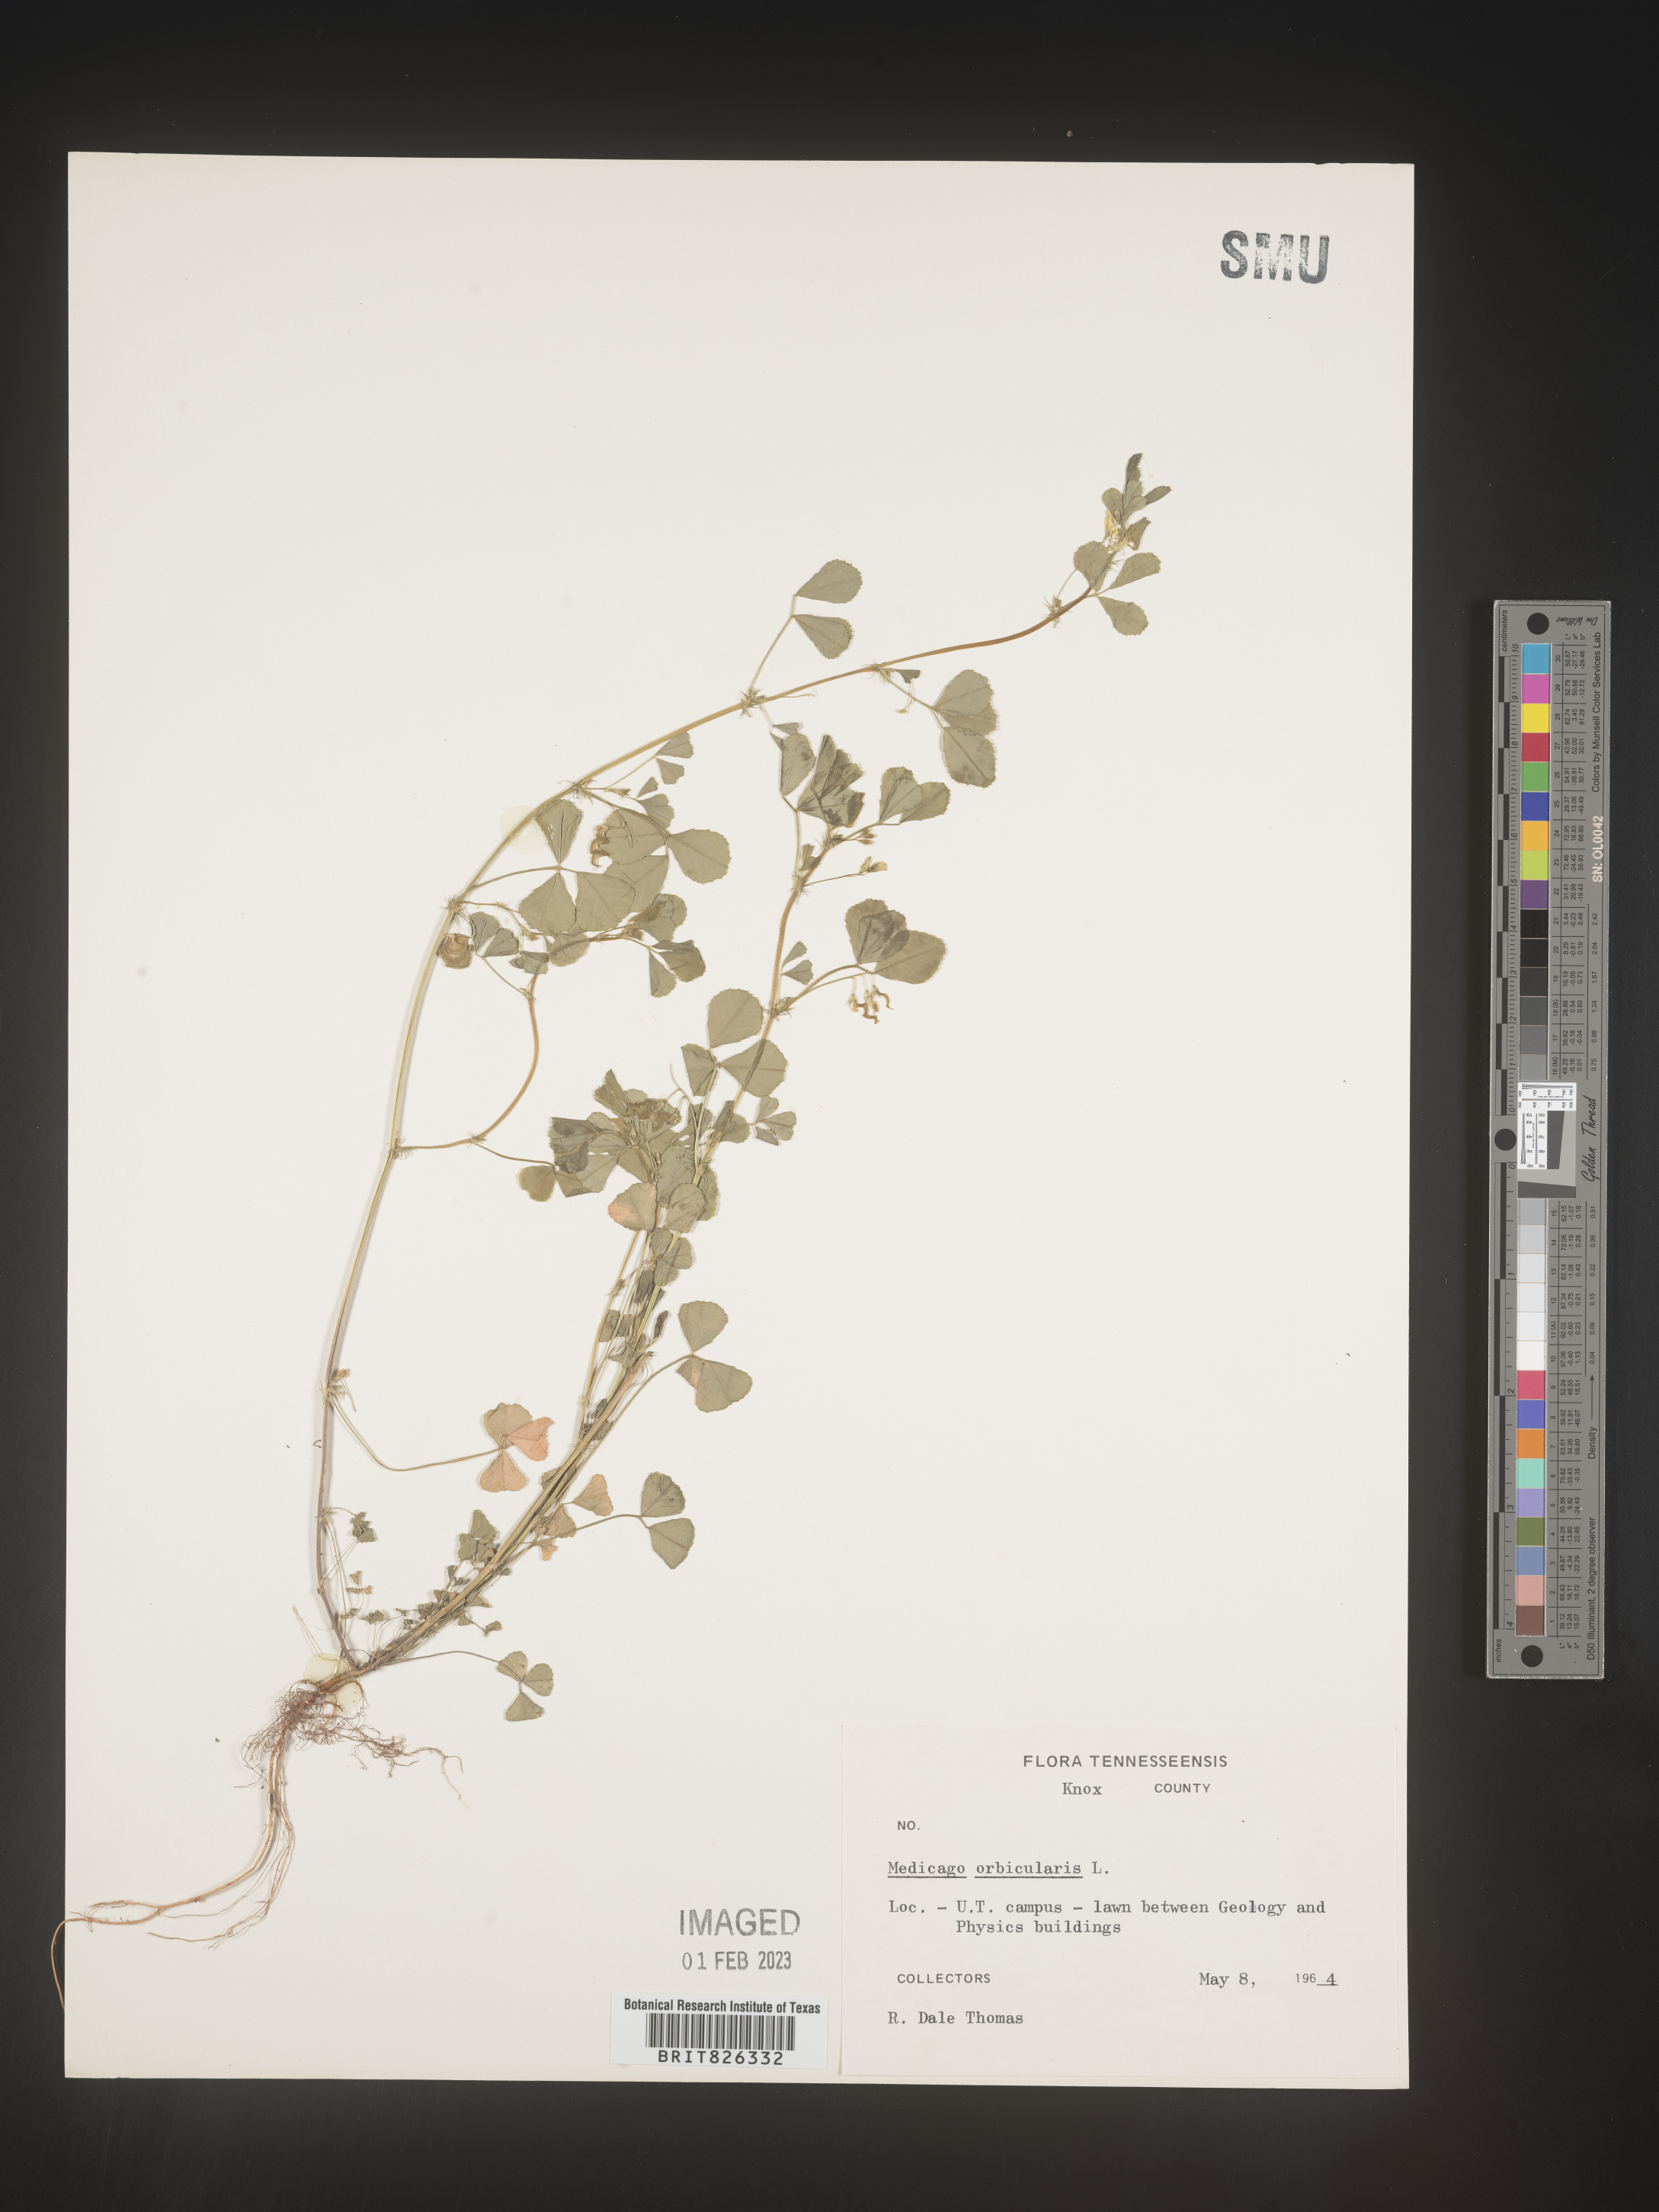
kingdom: Plantae
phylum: Tracheophyta
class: Magnoliopsida
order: Fabales
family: Fabaceae
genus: Medicago
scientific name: Medicago orbicularis
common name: Button medick
